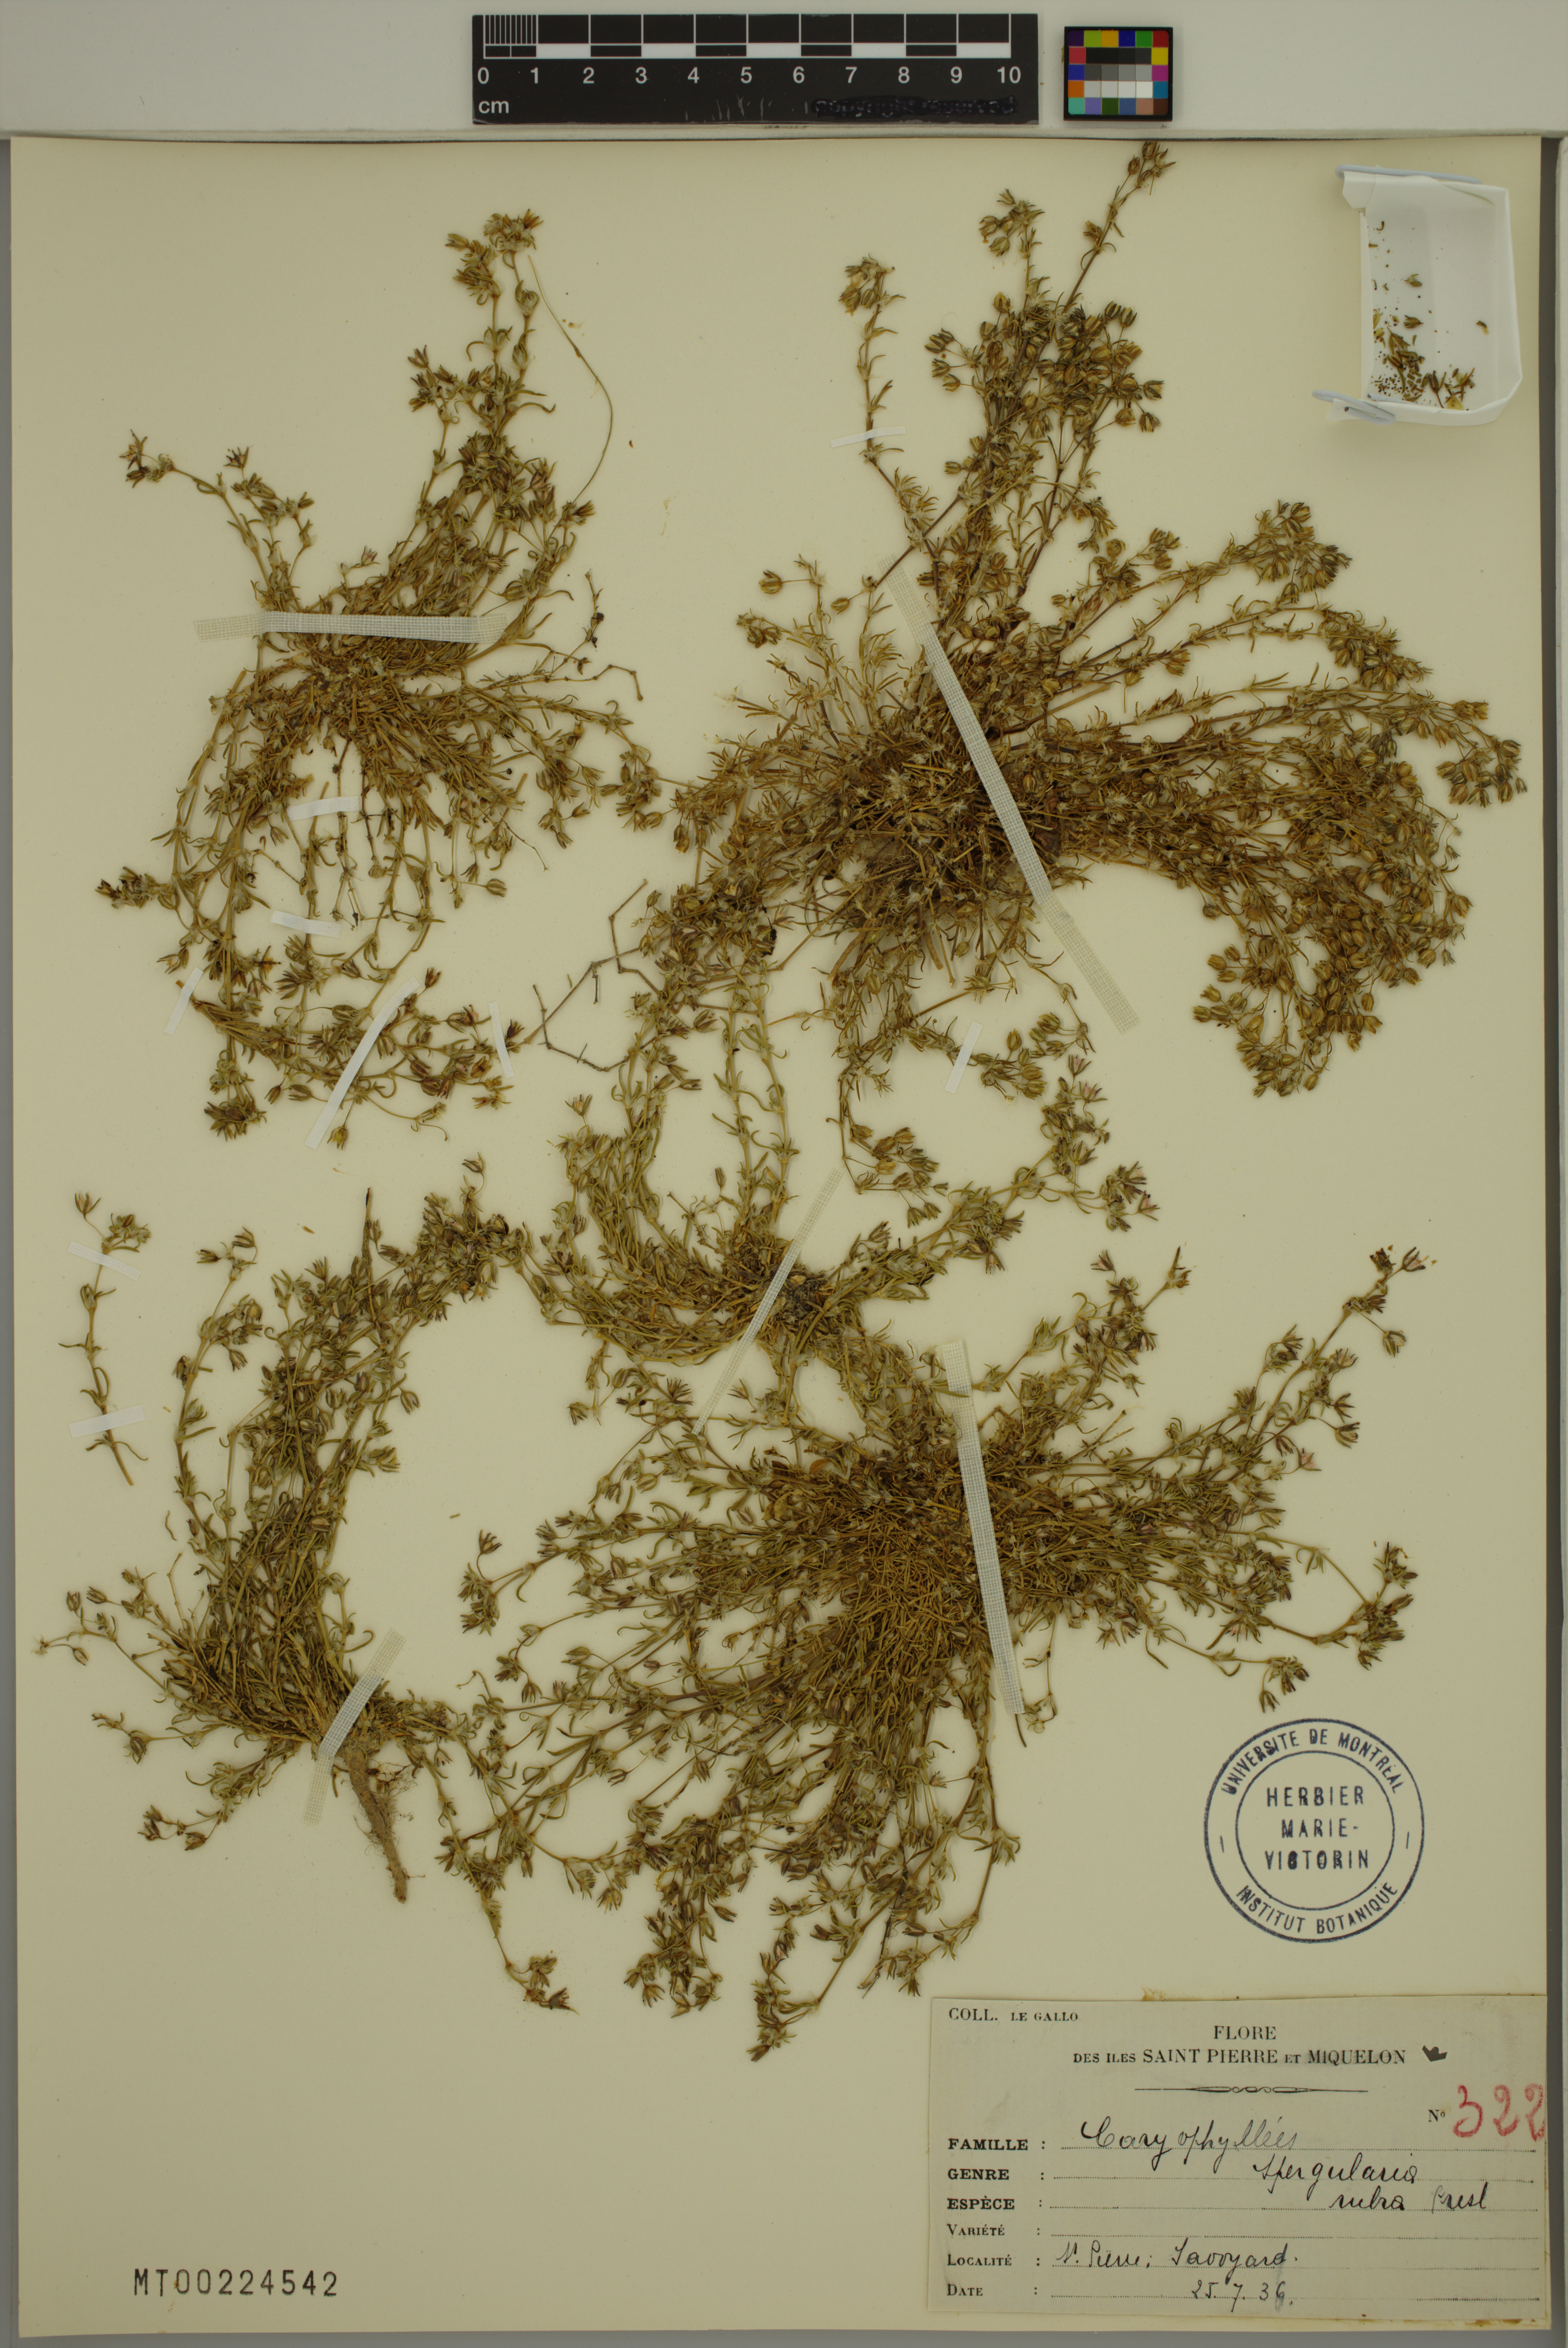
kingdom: Plantae
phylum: Tracheophyta
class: Magnoliopsida
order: Caryophyllales
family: Caryophyllaceae
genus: Spergularia
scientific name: Spergularia rubra
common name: Red sand-spurrey
